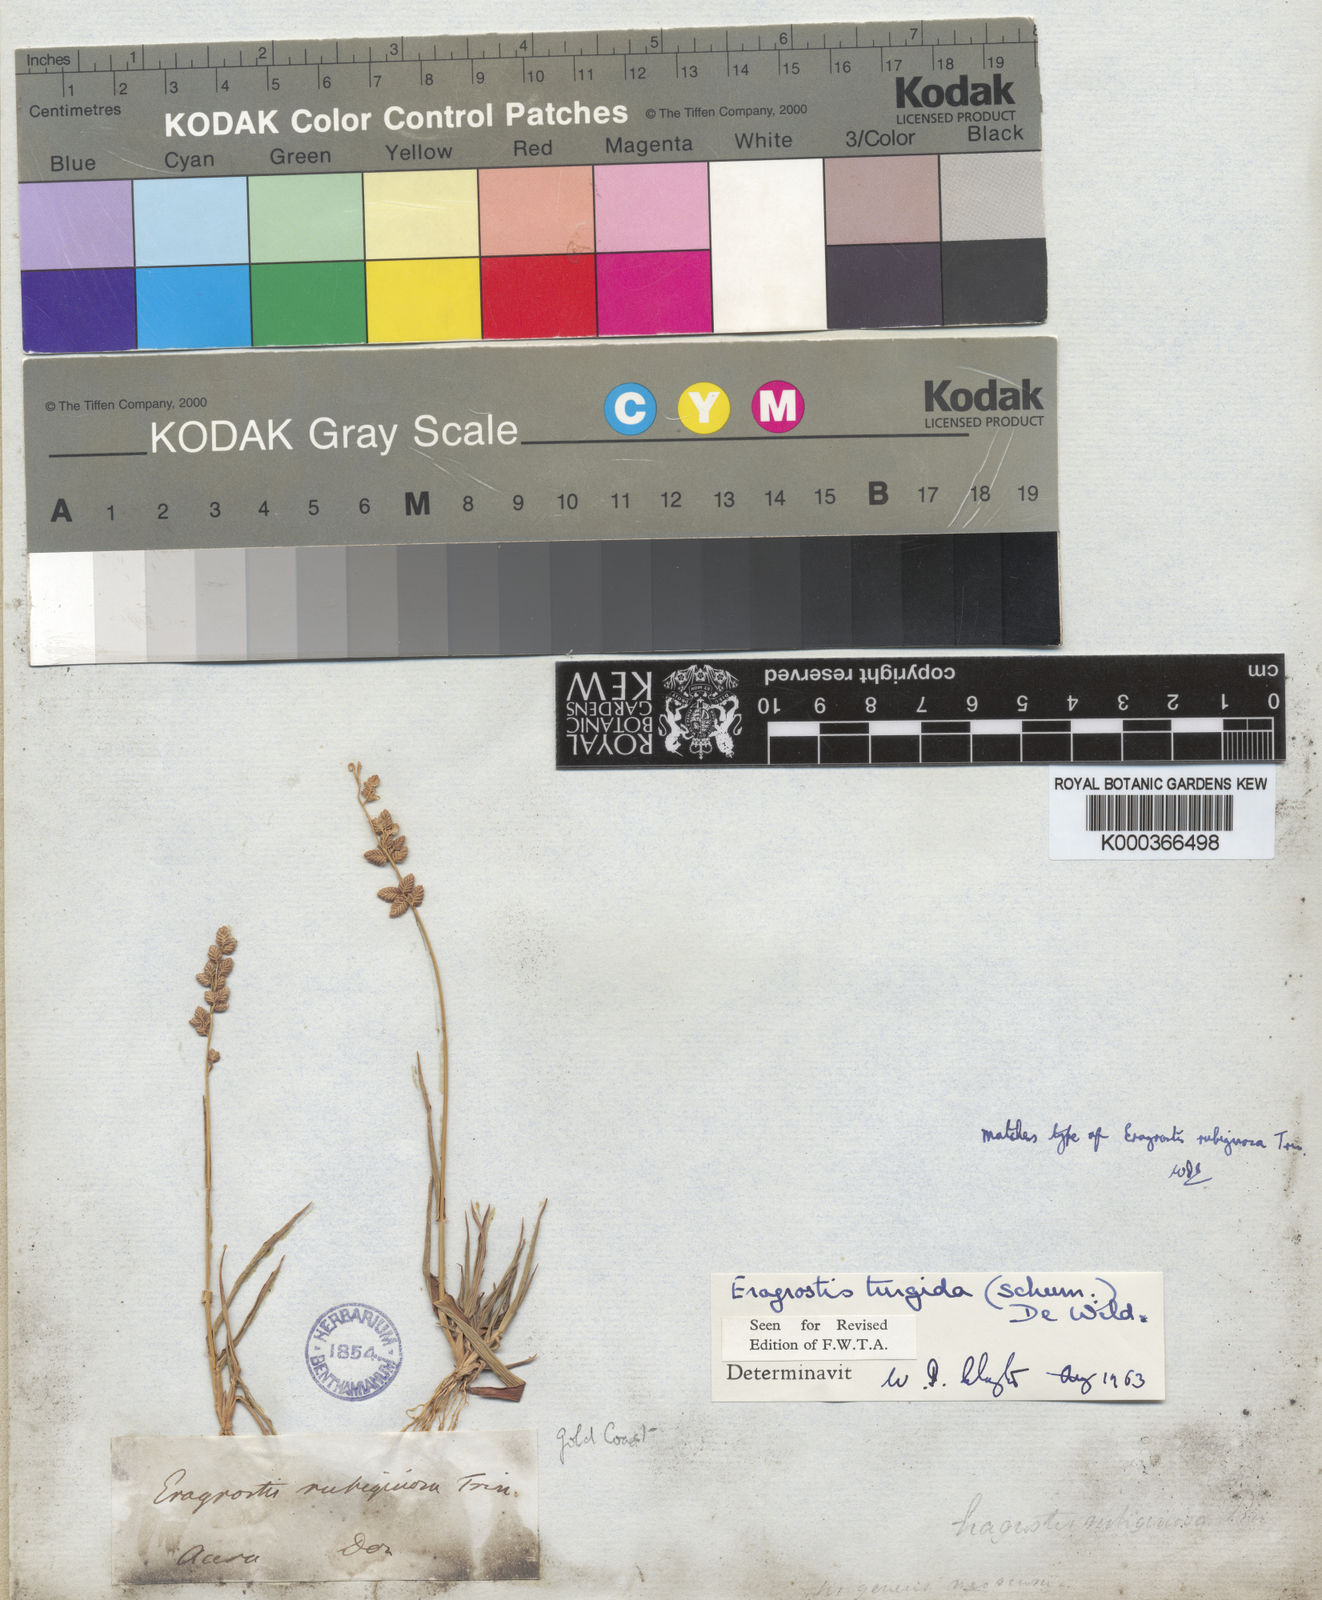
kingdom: Plantae
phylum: Tracheophyta
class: Liliopsida
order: Poales
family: Poaceae
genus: Eragrostis
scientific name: Eragrostis turgida
